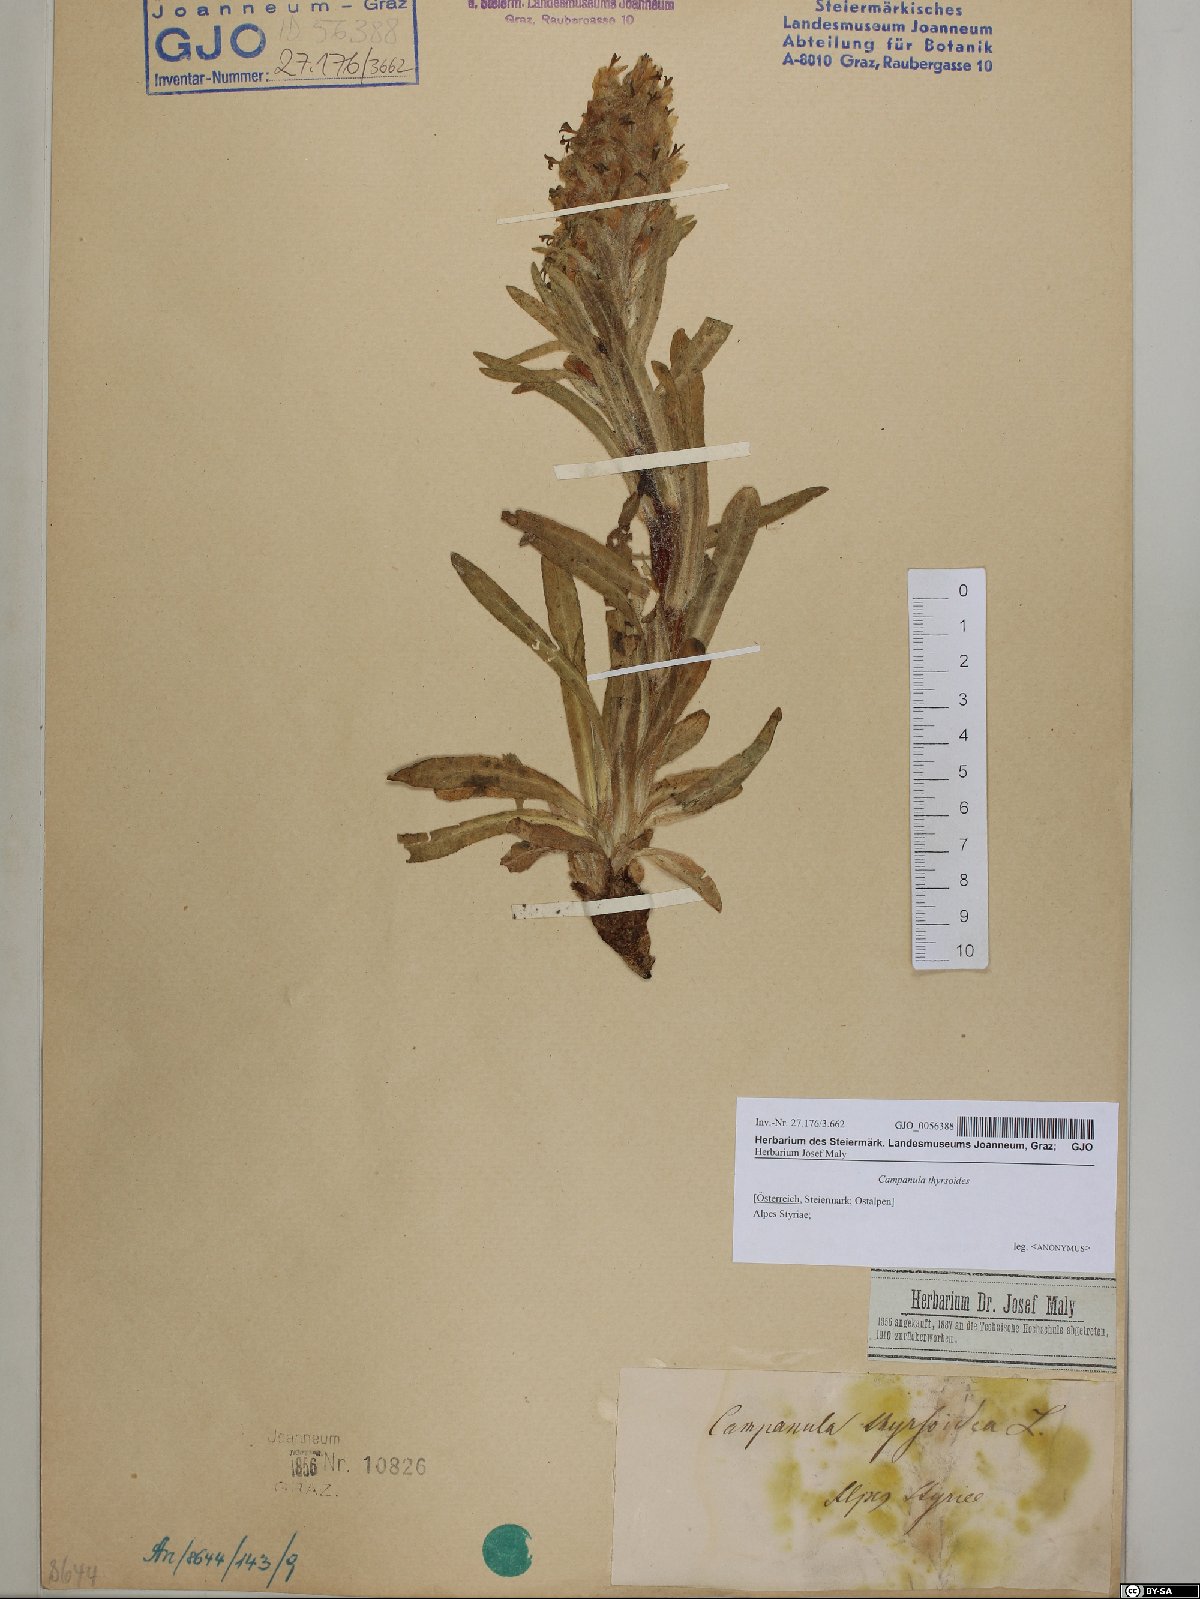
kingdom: Plantae
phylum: Tracheophyta
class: Magnoliopsida
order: Asterales
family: Campanulaceae
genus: Campanula
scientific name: Campanula thyrsoides
